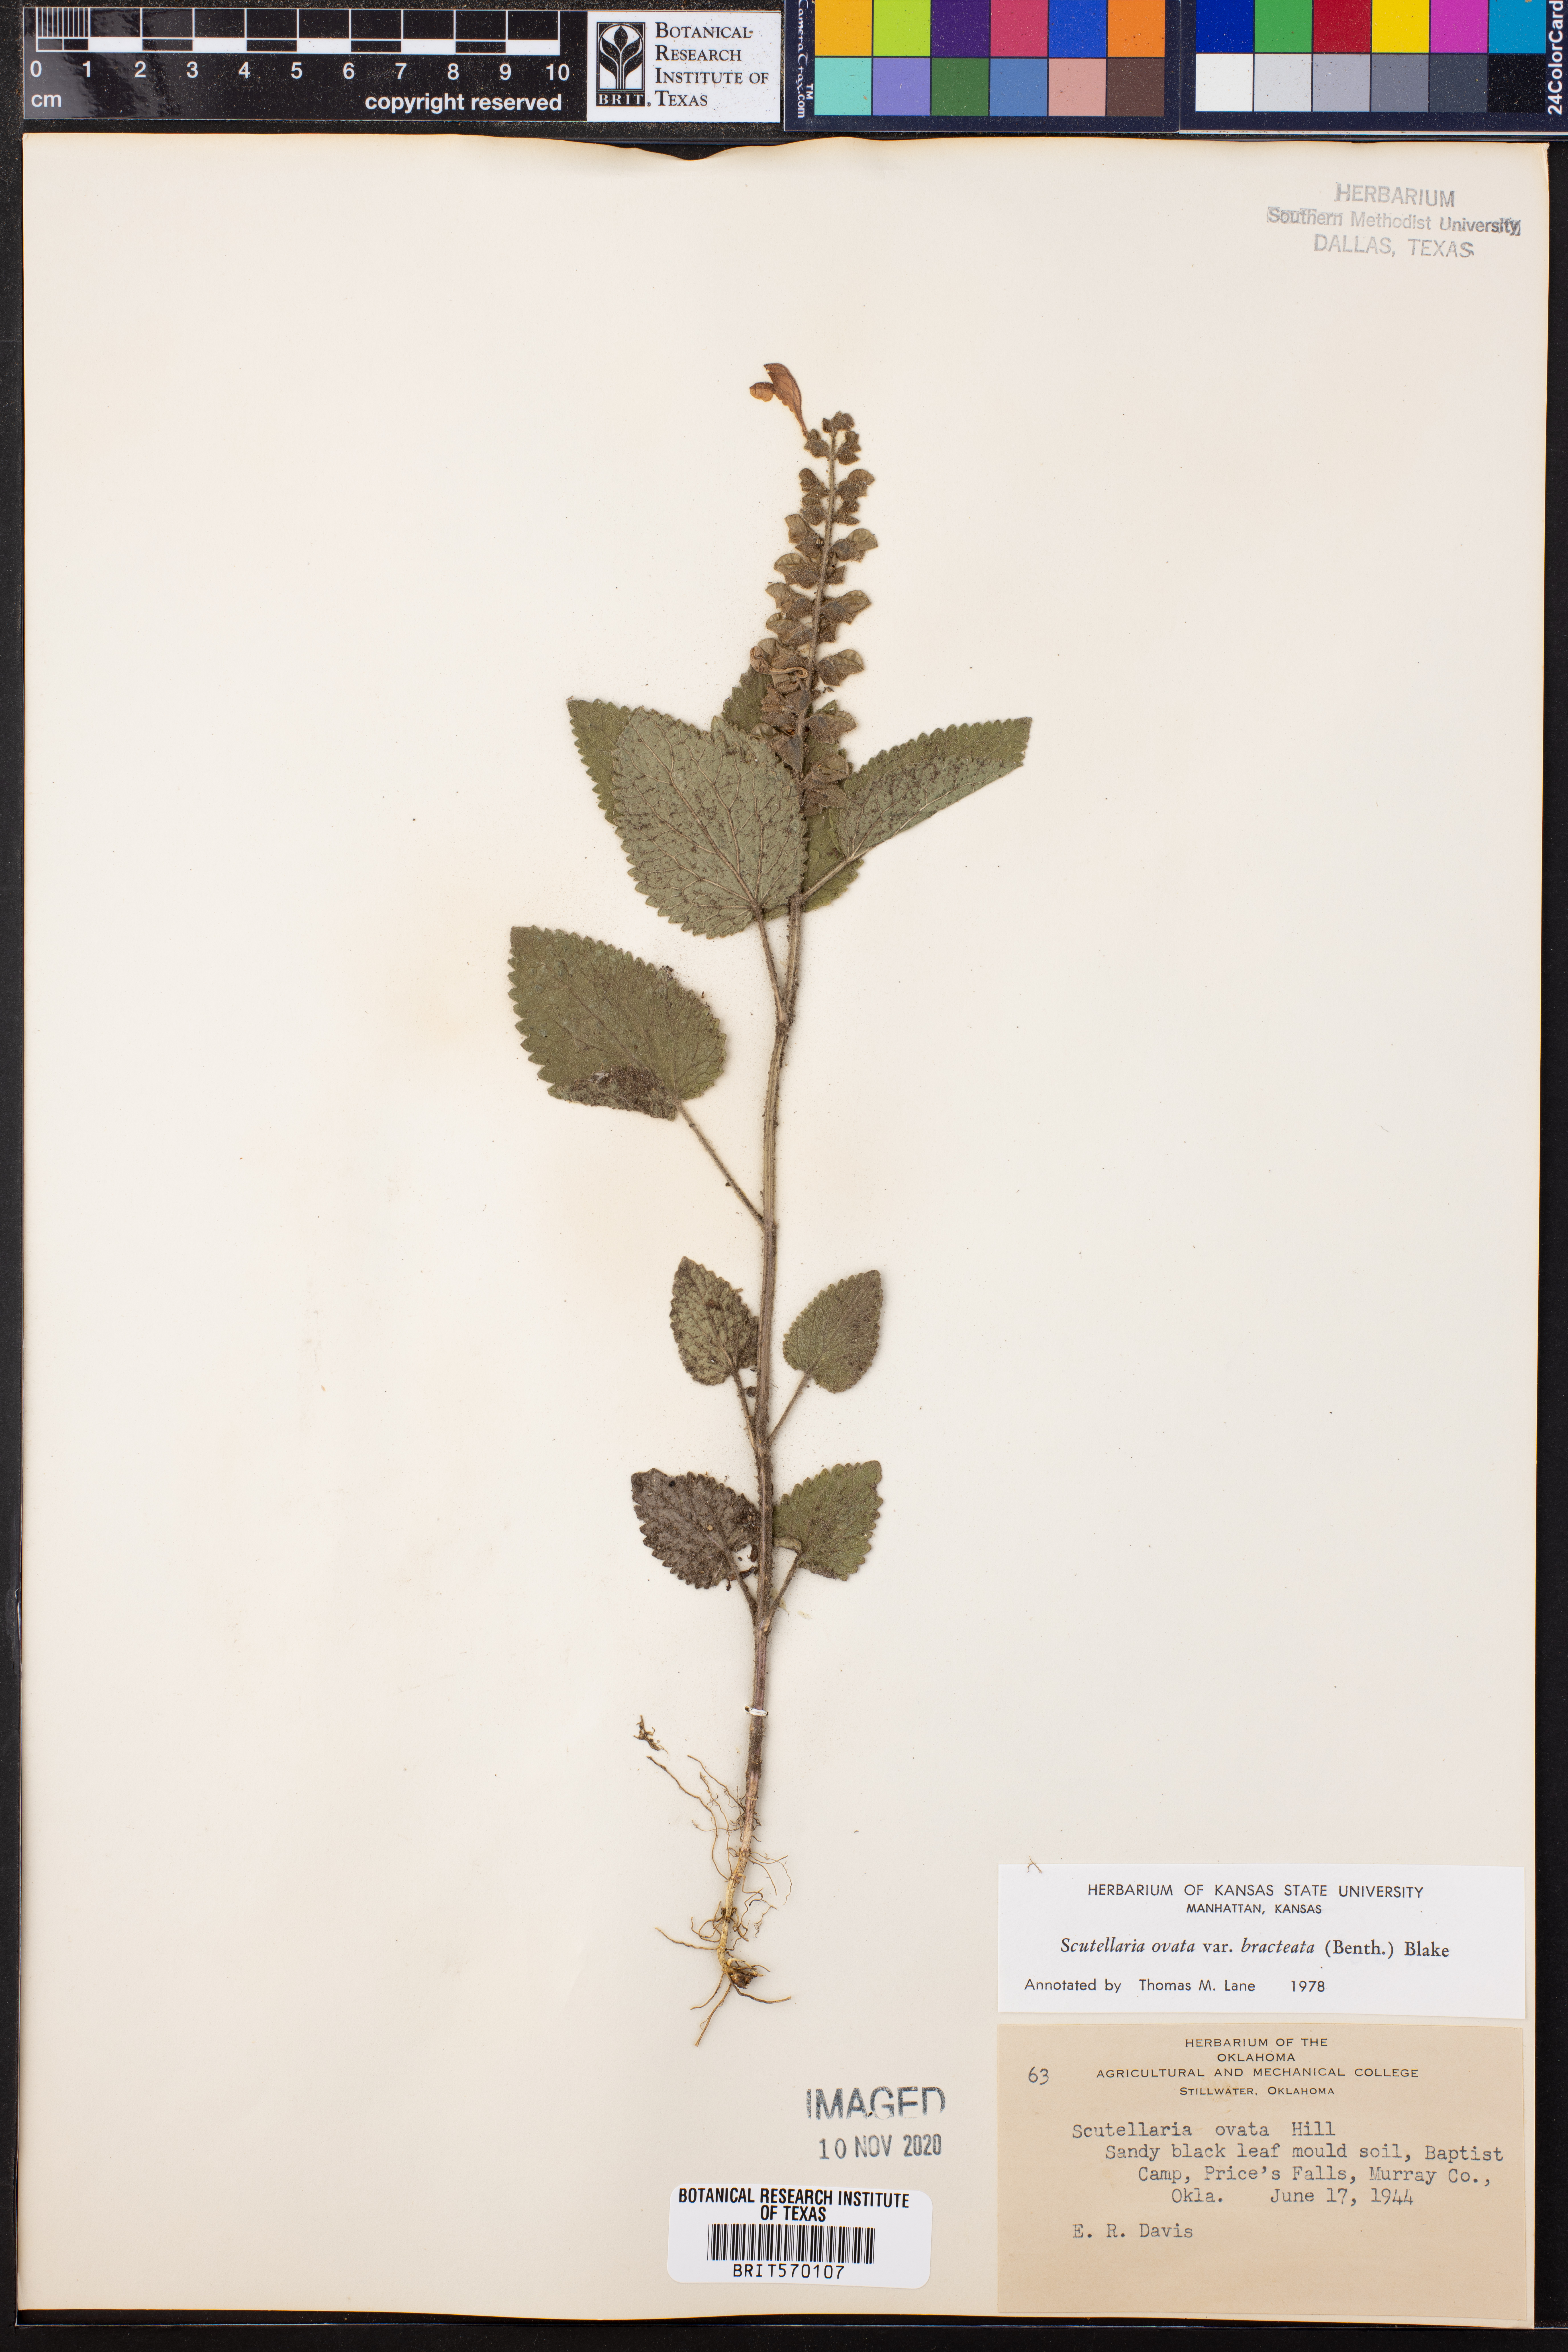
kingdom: Plantae
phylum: Tracheophyta
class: Magnoliopsida
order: Lamiales
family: Lamiaceae
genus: Scutellaria
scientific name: Scutellaria ovata
